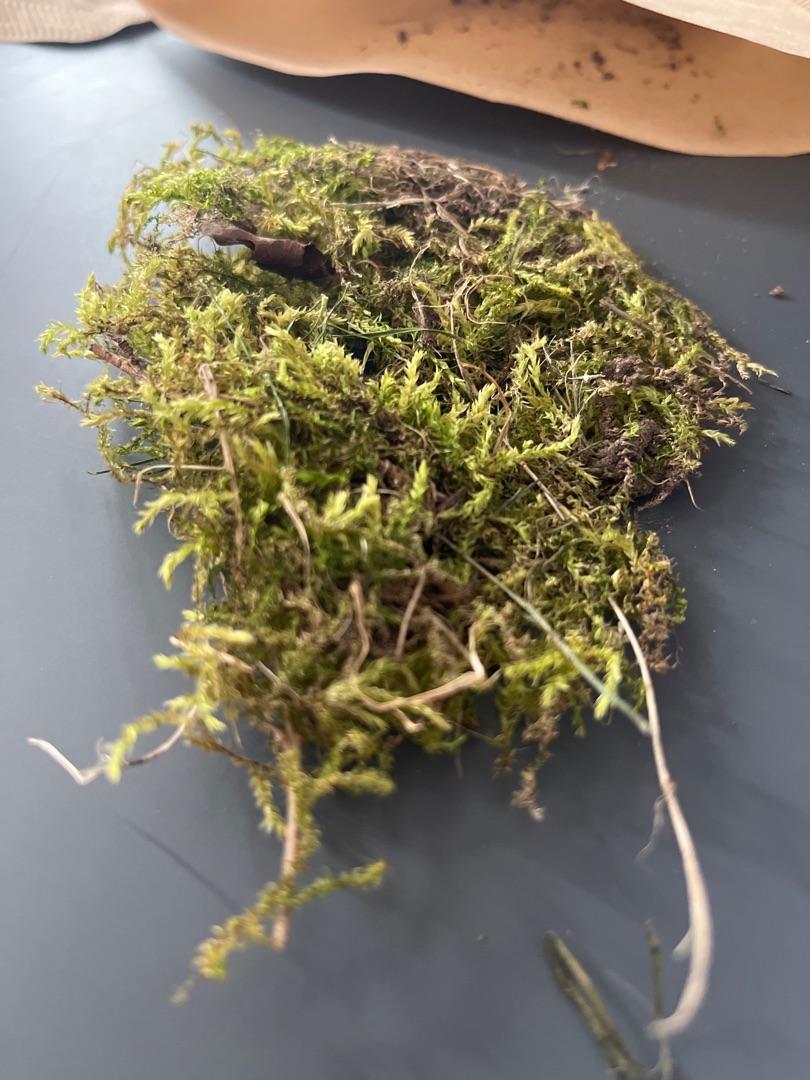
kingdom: Plantae
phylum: Bryophyta
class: Bryopsida
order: Hypnales
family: Brachytheciaceae
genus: Brachythecium
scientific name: Brachythecium rutabulum
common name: Almindelig kortkapsel
